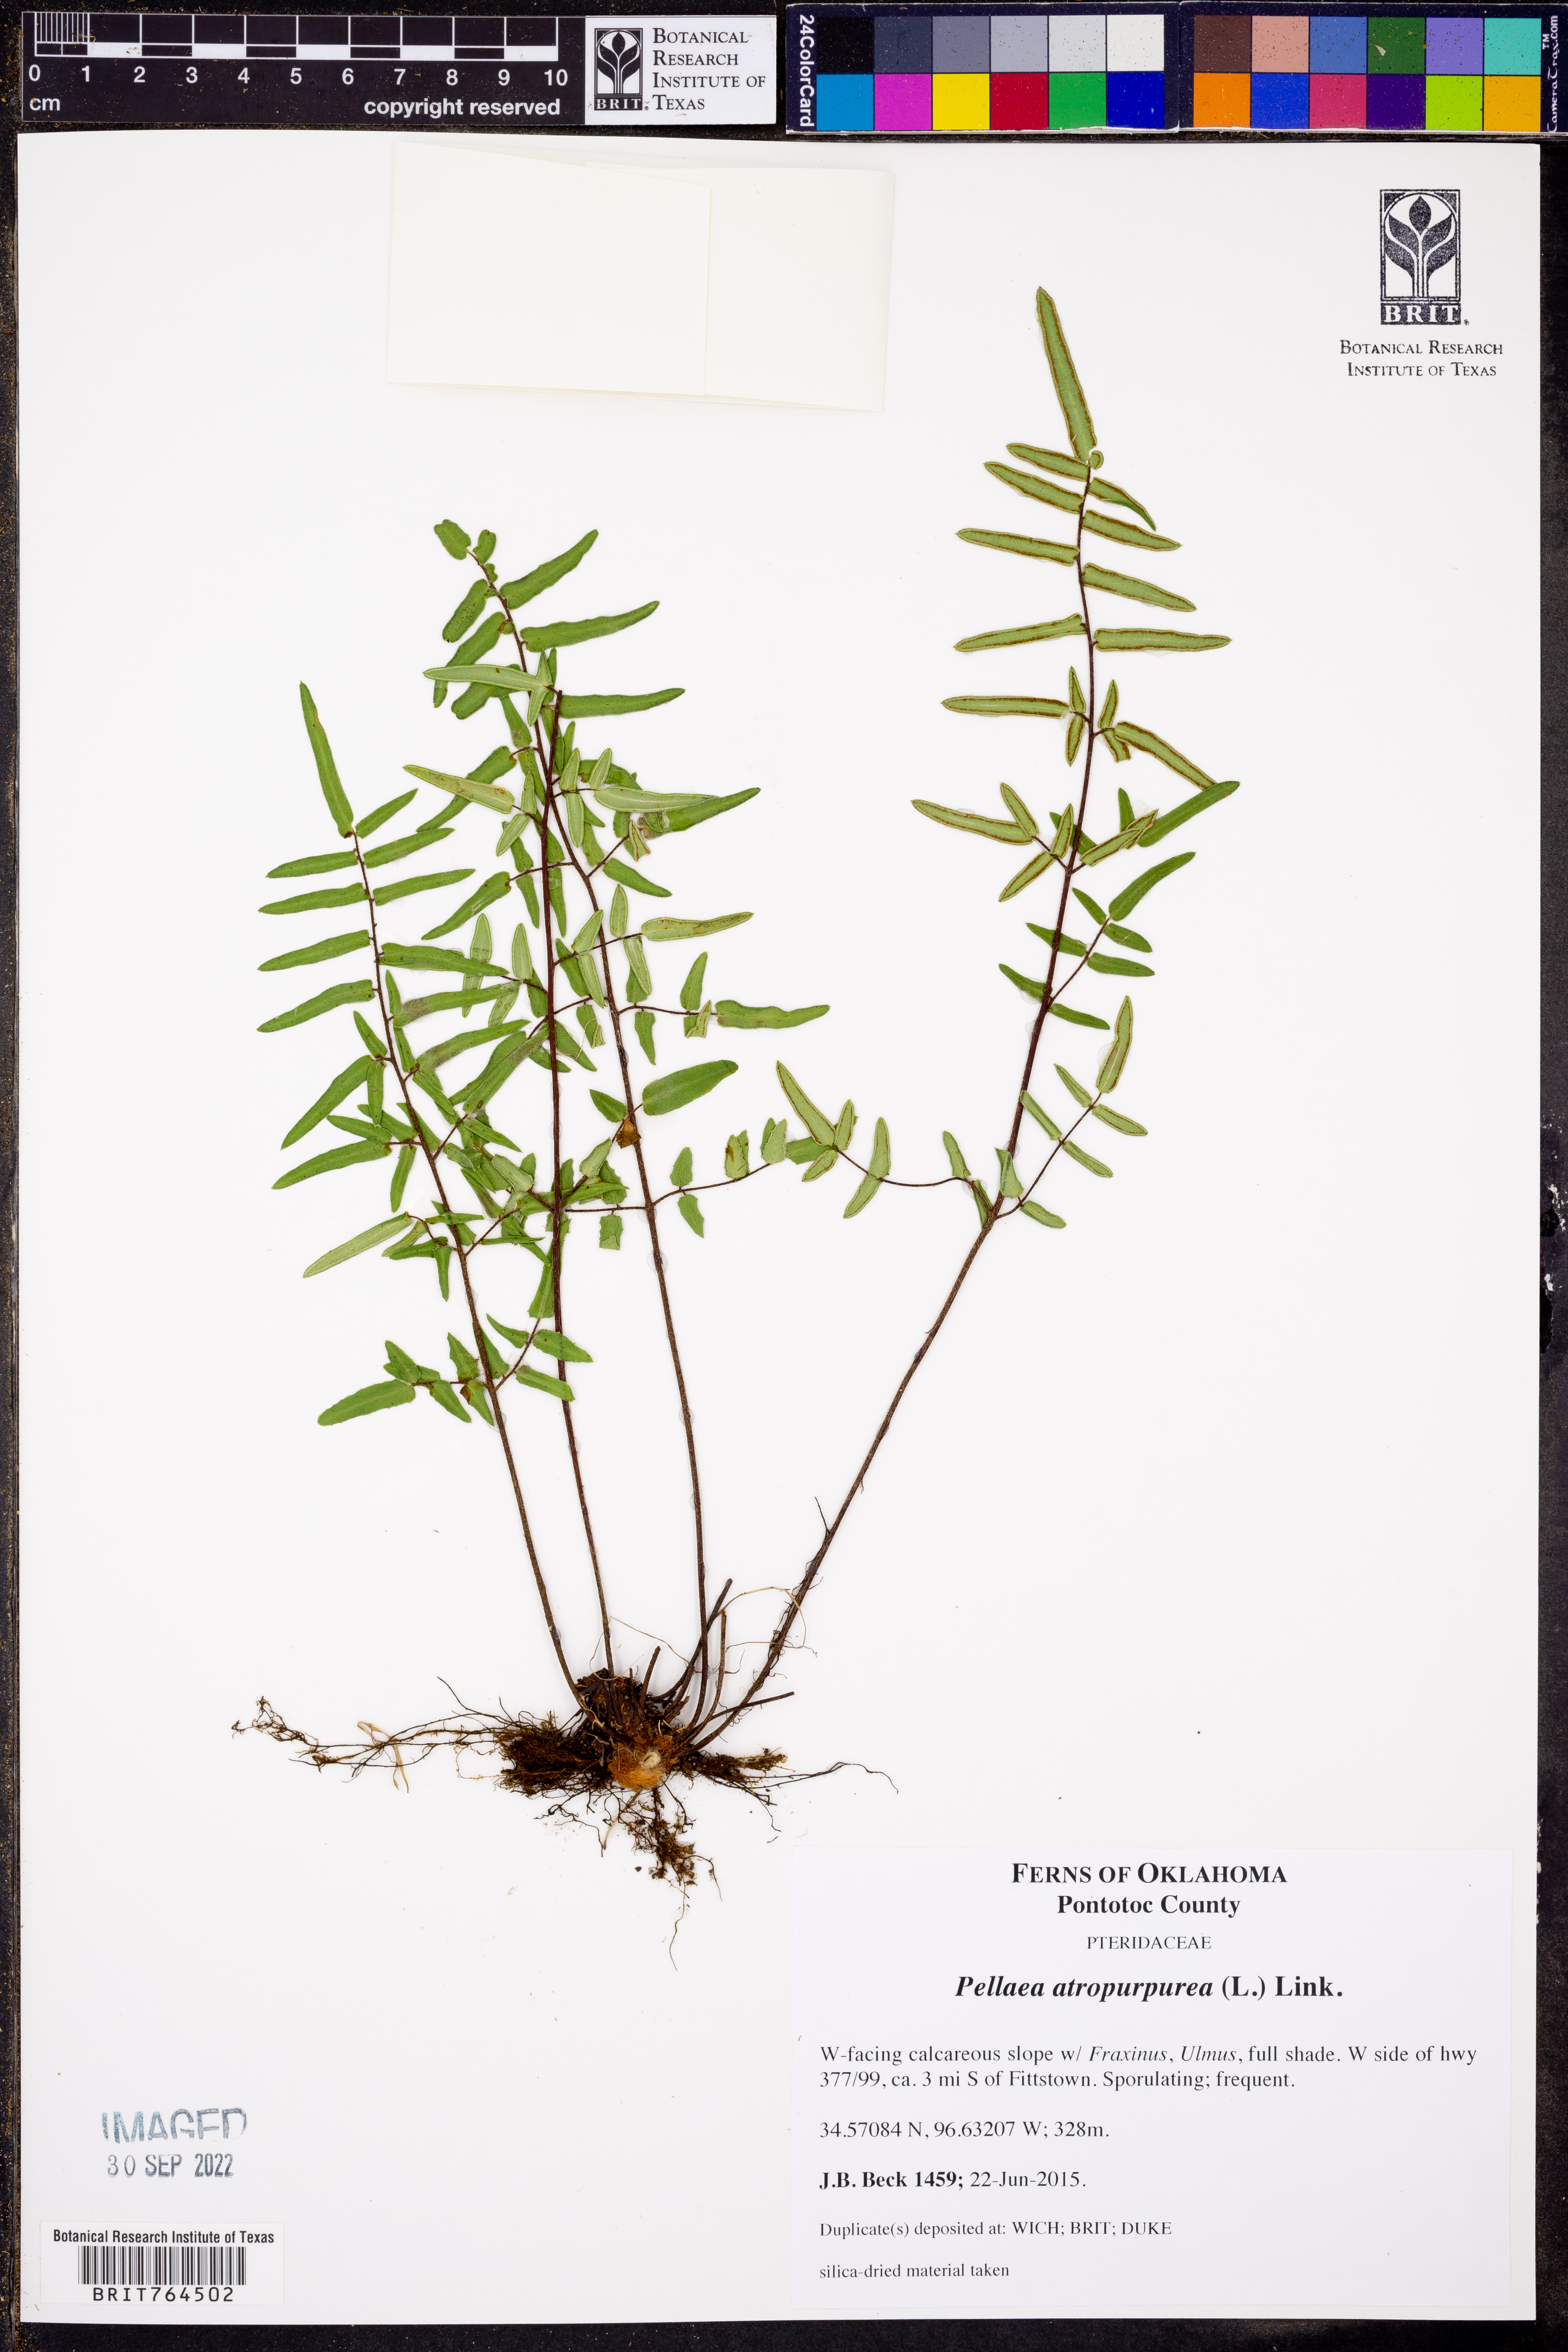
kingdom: Plantae
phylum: Tracheophyta
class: Polypodiopsida
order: Polypodiales
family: Pteridaceae
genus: Pellaea
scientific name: Pellaea atropurpurea
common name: Hairy cliffbrake
